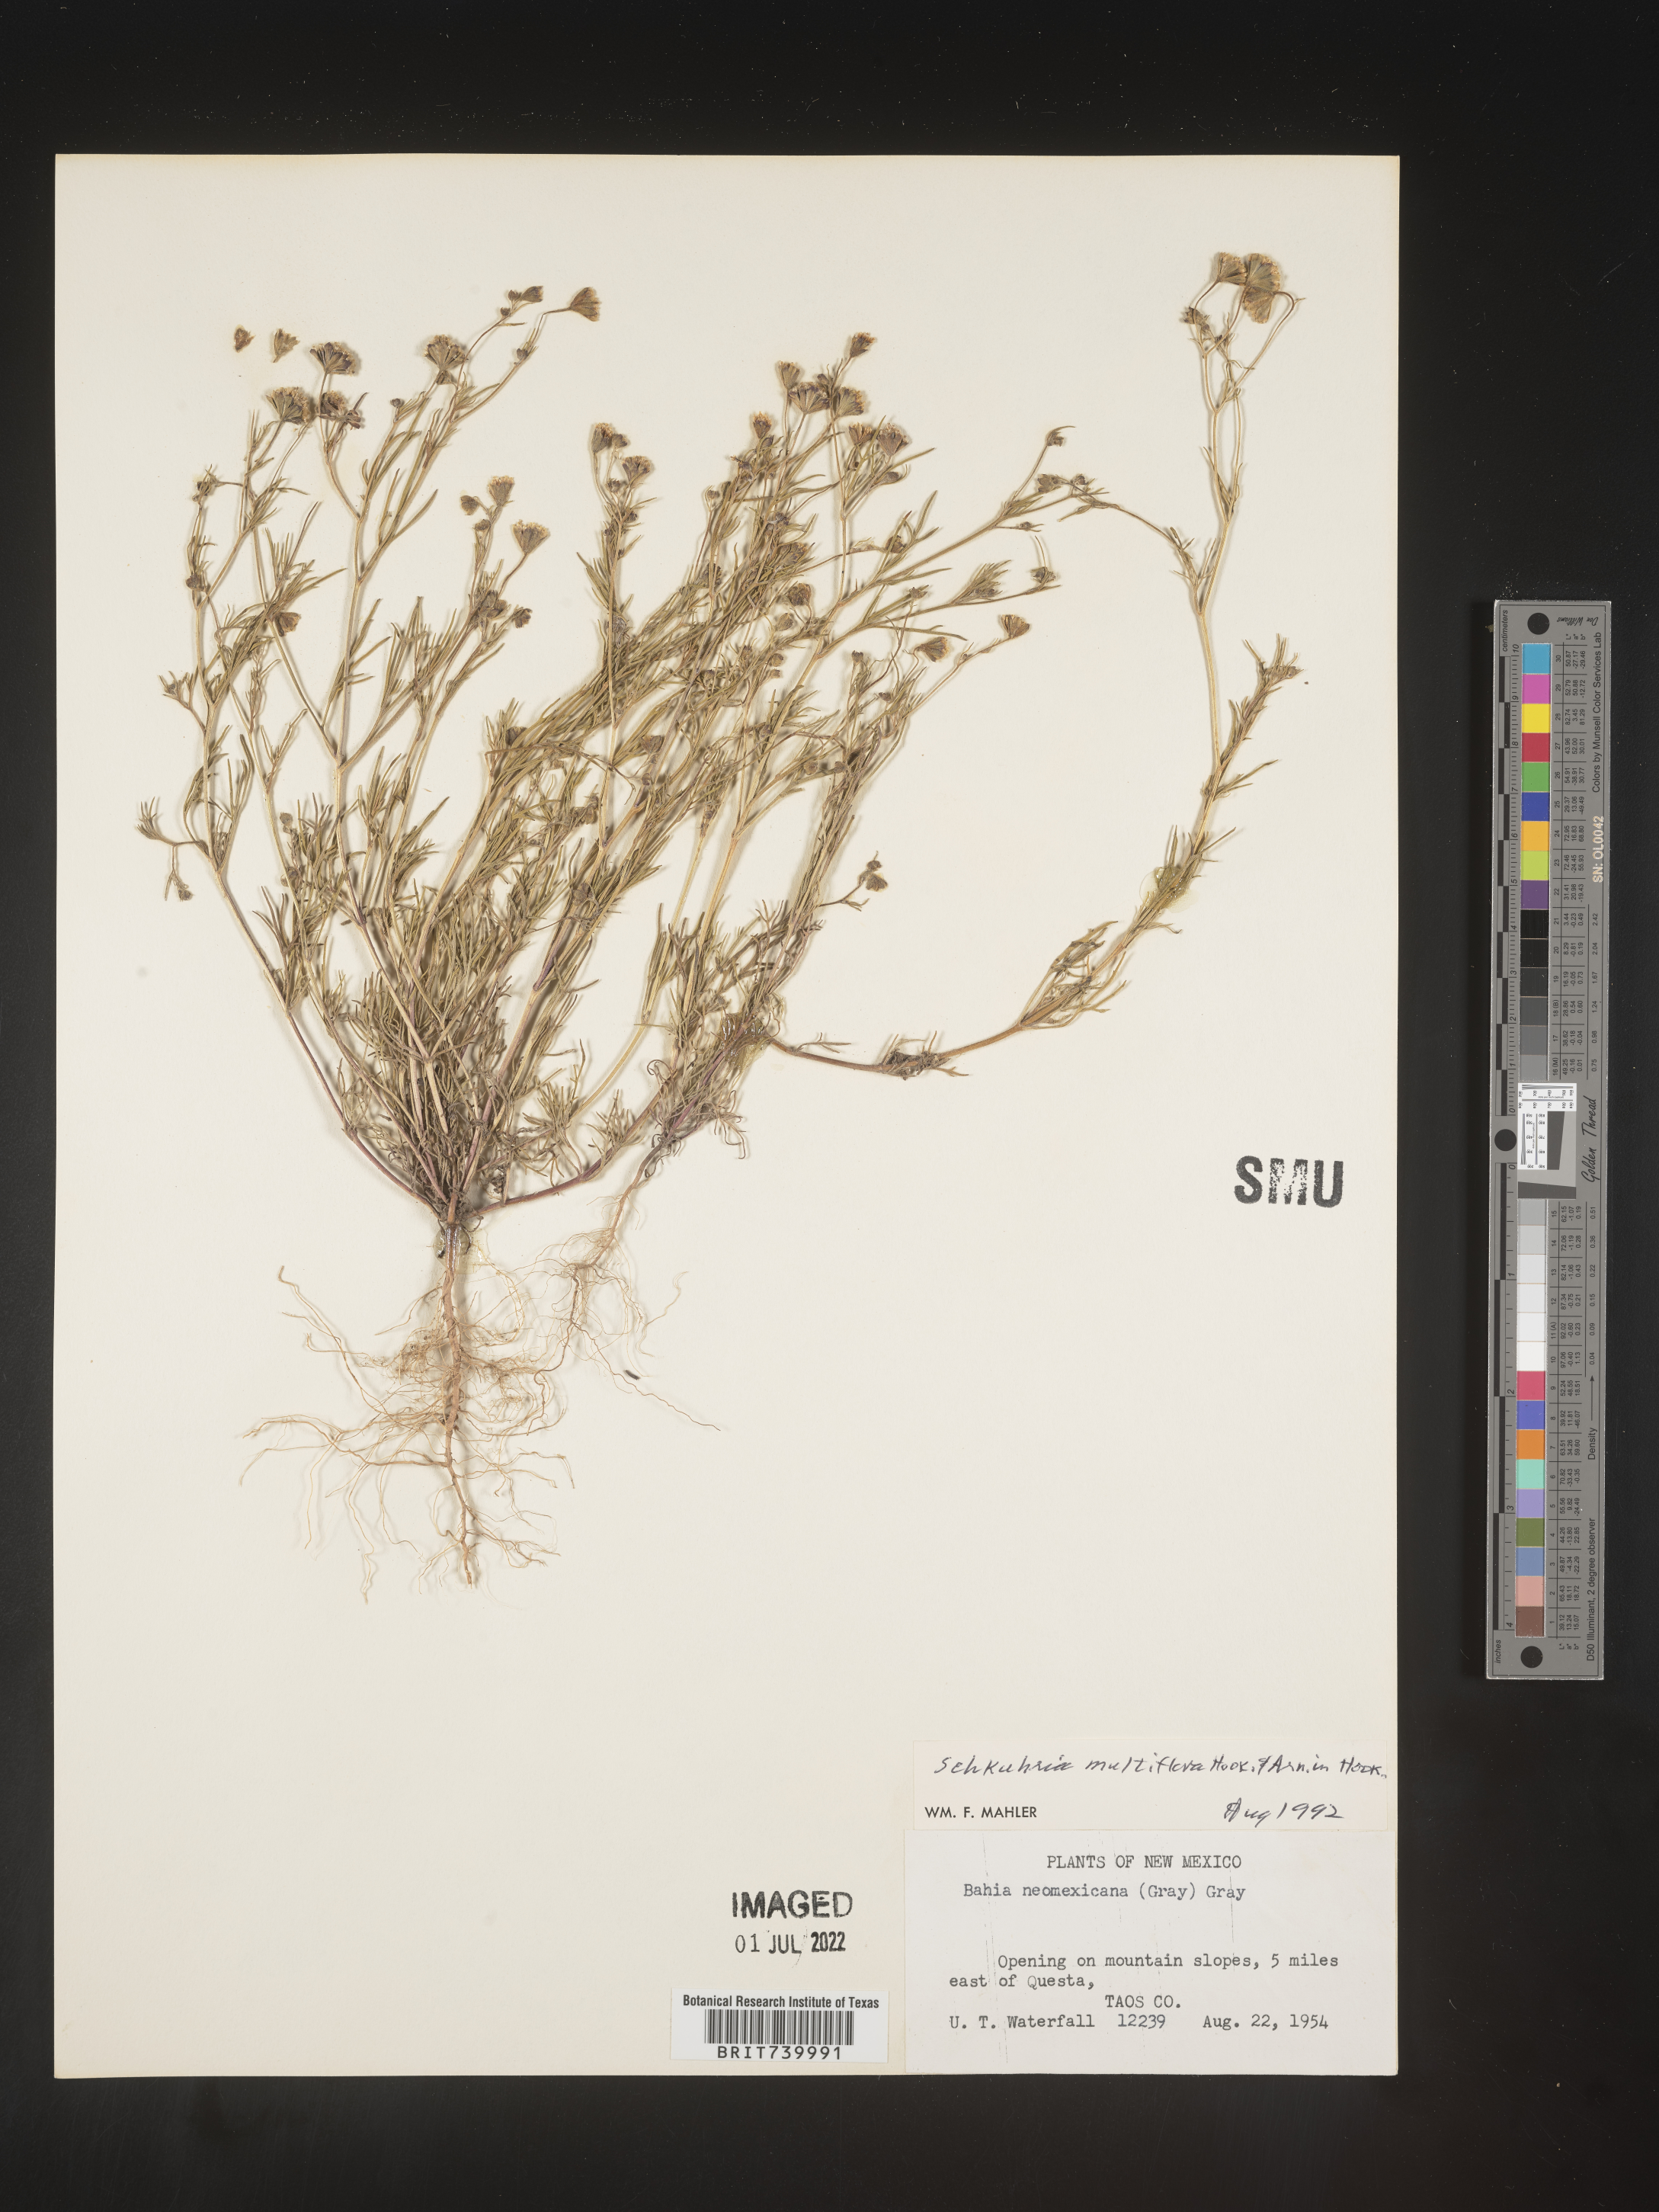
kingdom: Plantae
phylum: Tracheophyta
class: Magnoliopsida
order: Asterales
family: Asteraceae
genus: Schkuhria
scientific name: Schkuhria
